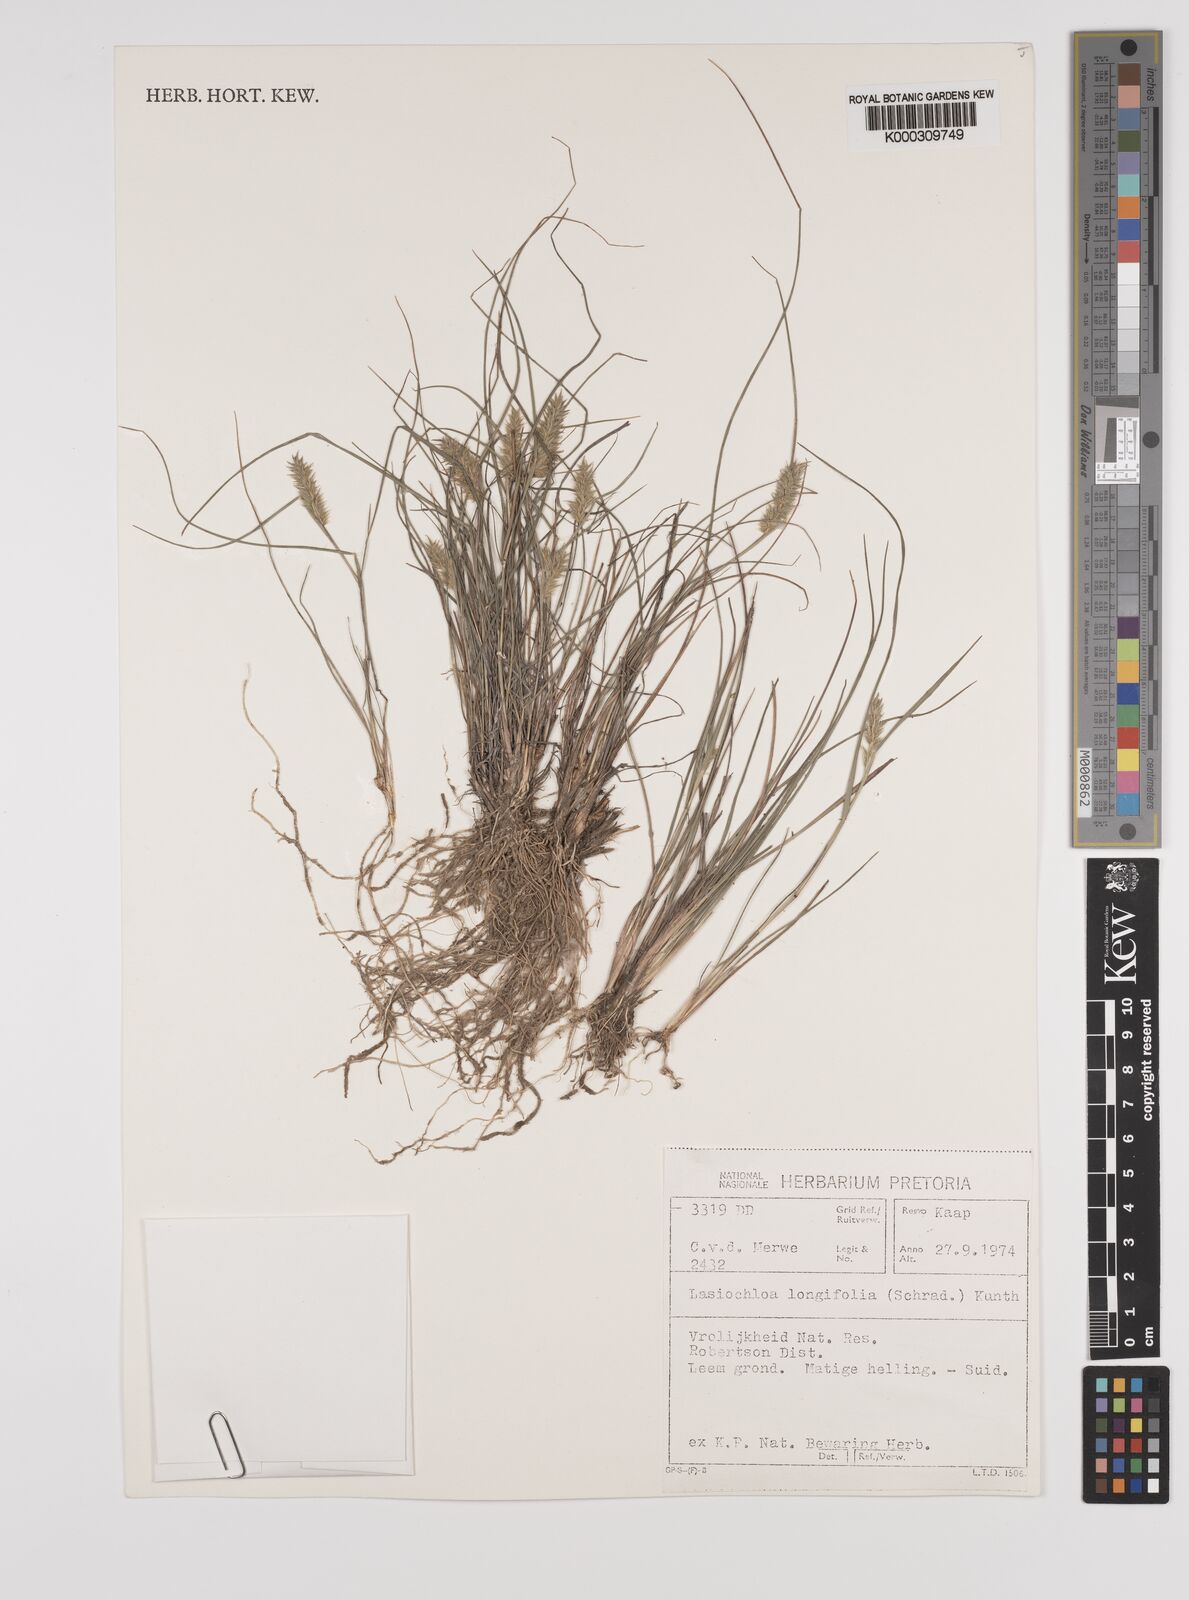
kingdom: Plantae
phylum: Tracheophyta
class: Liliopsida
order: Poales
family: Poaceae
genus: Tribolium
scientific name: Tribolium hispidum
